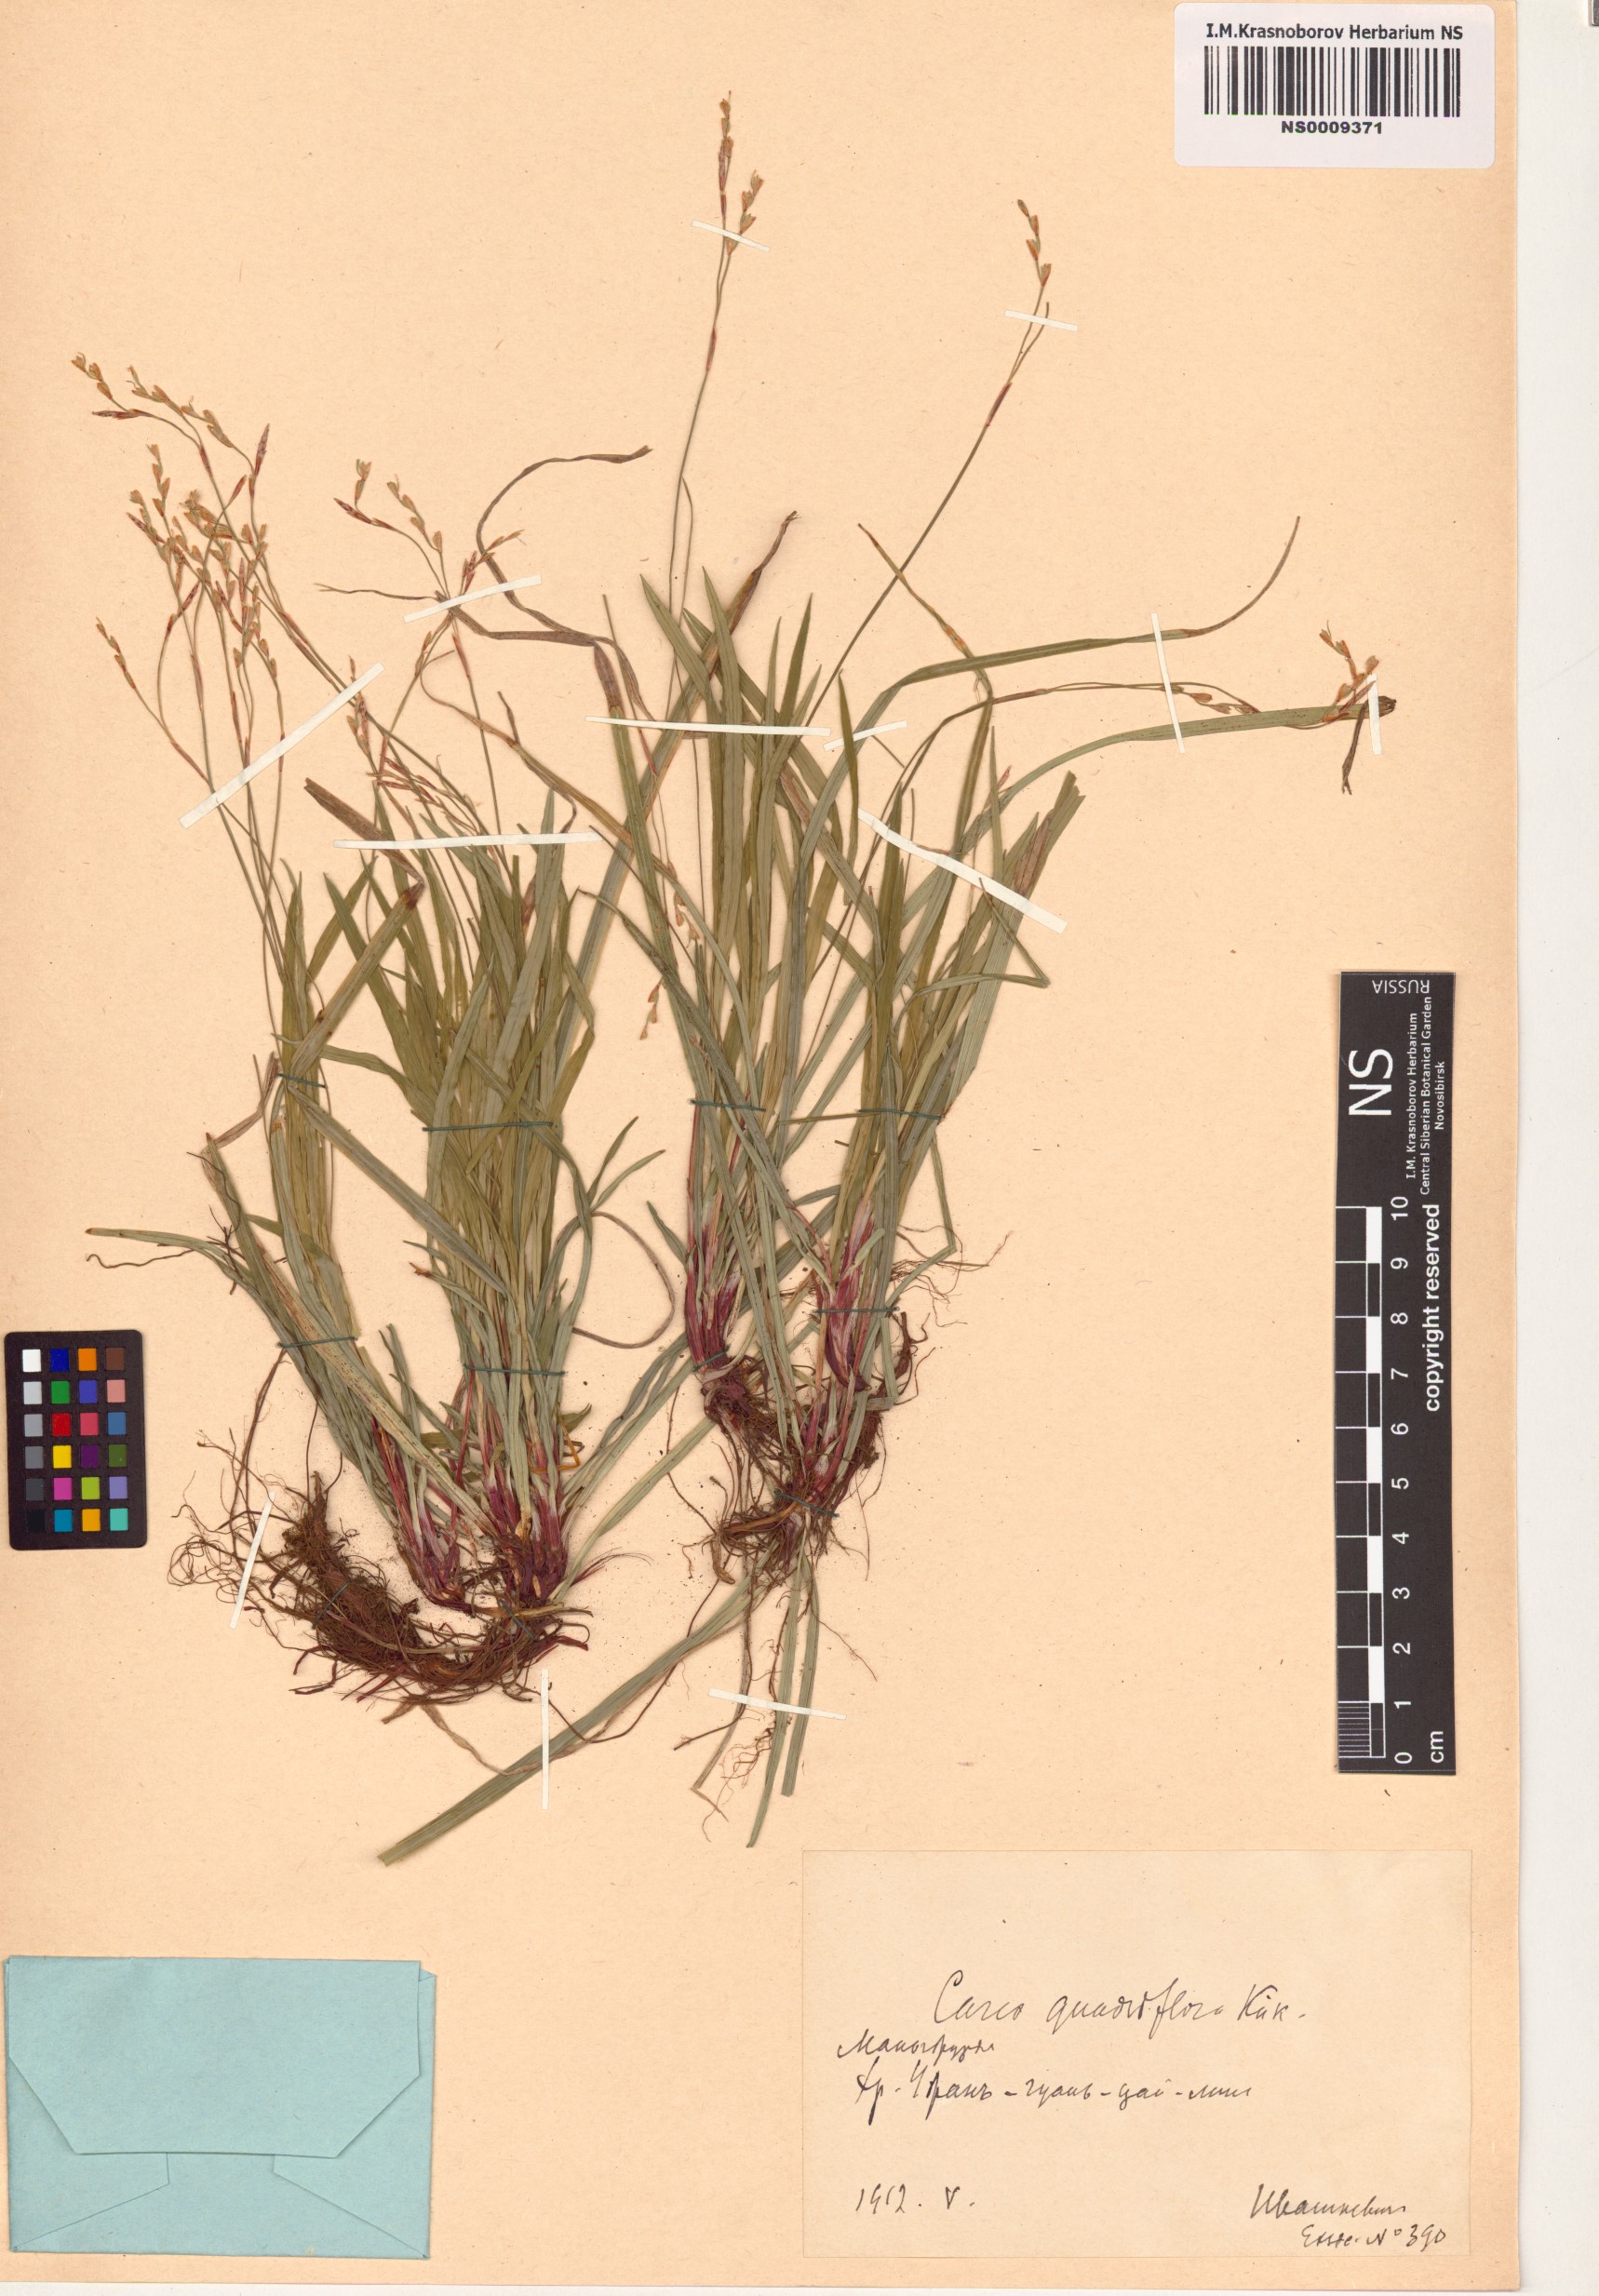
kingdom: Plantae
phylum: Tracheophyta
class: Liliopsida
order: Poales
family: Cyperaceae
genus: Carex
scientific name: Carex quadriflora
